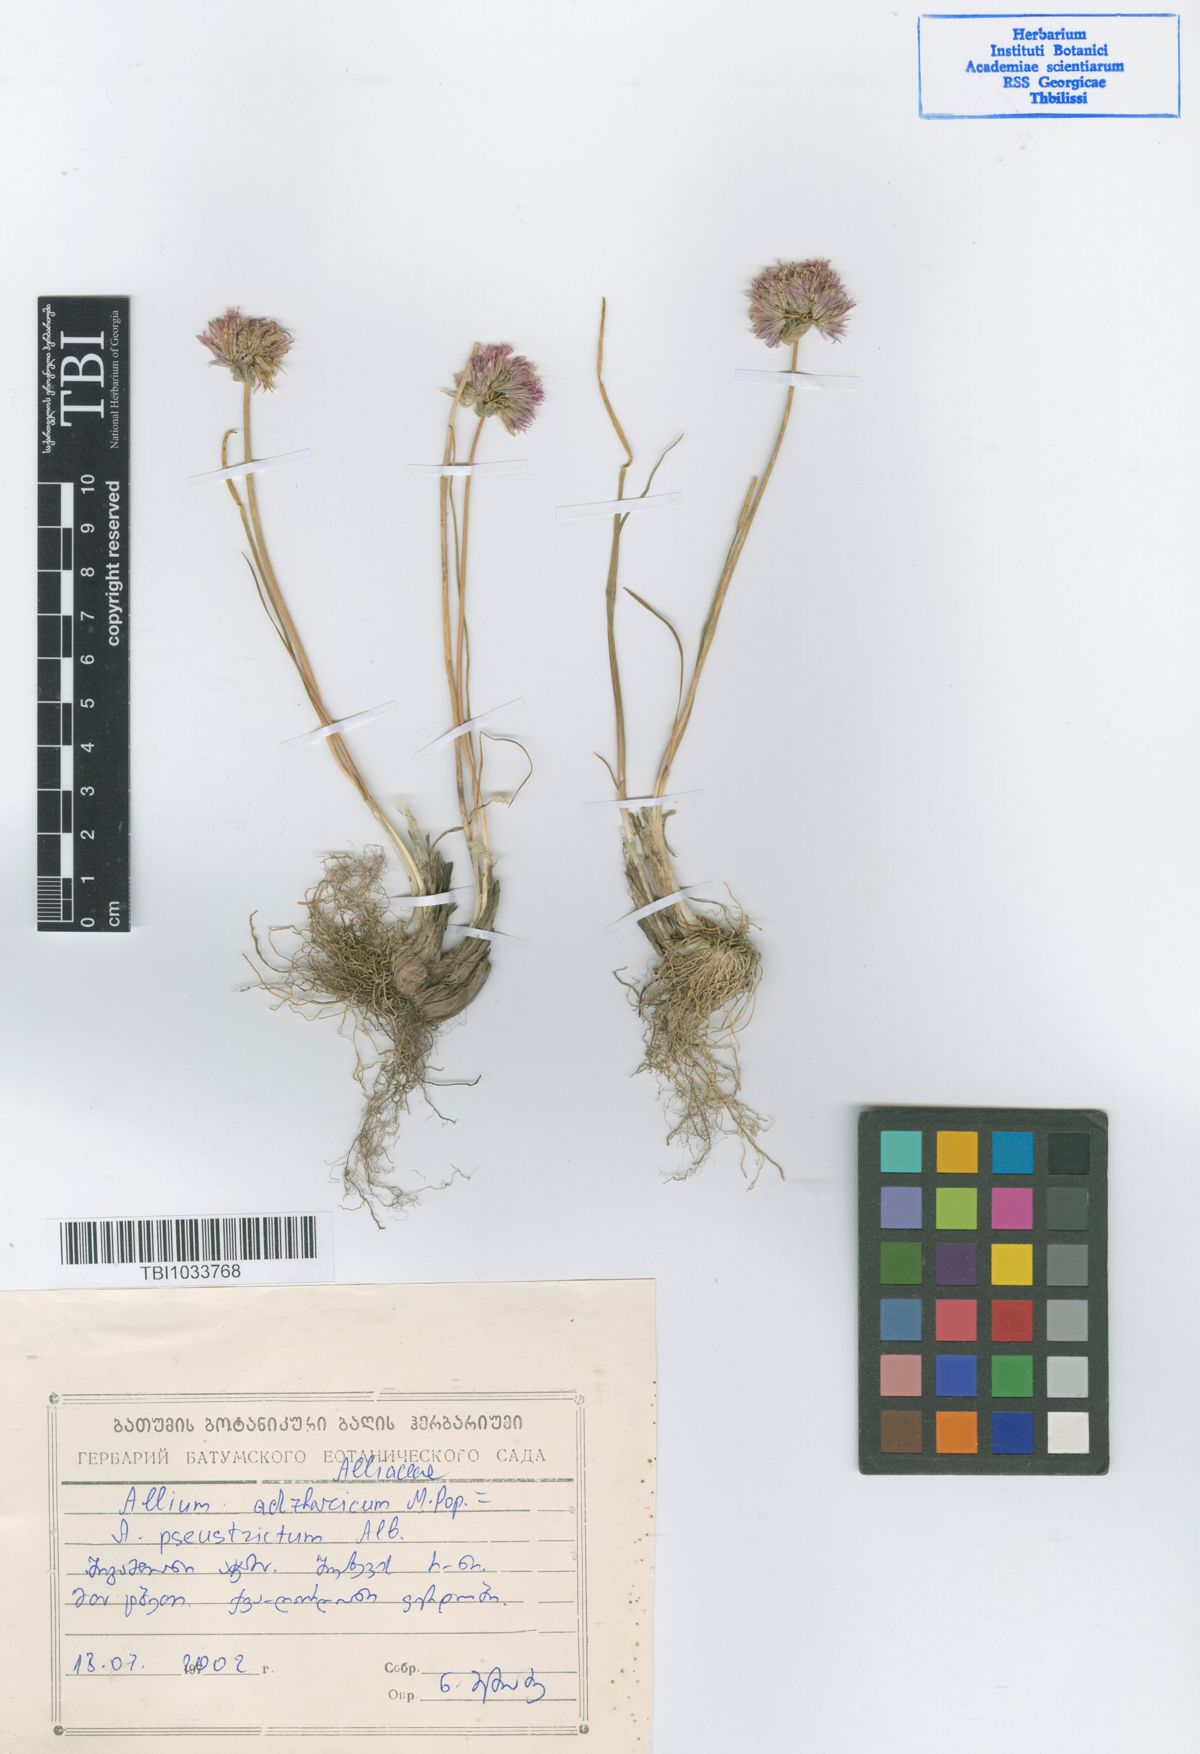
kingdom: Plantae
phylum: Tracheophyta
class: Liliopsida
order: Asparagales
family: Amaryllidaceae
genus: Allium
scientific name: Allium pseudostrictum
